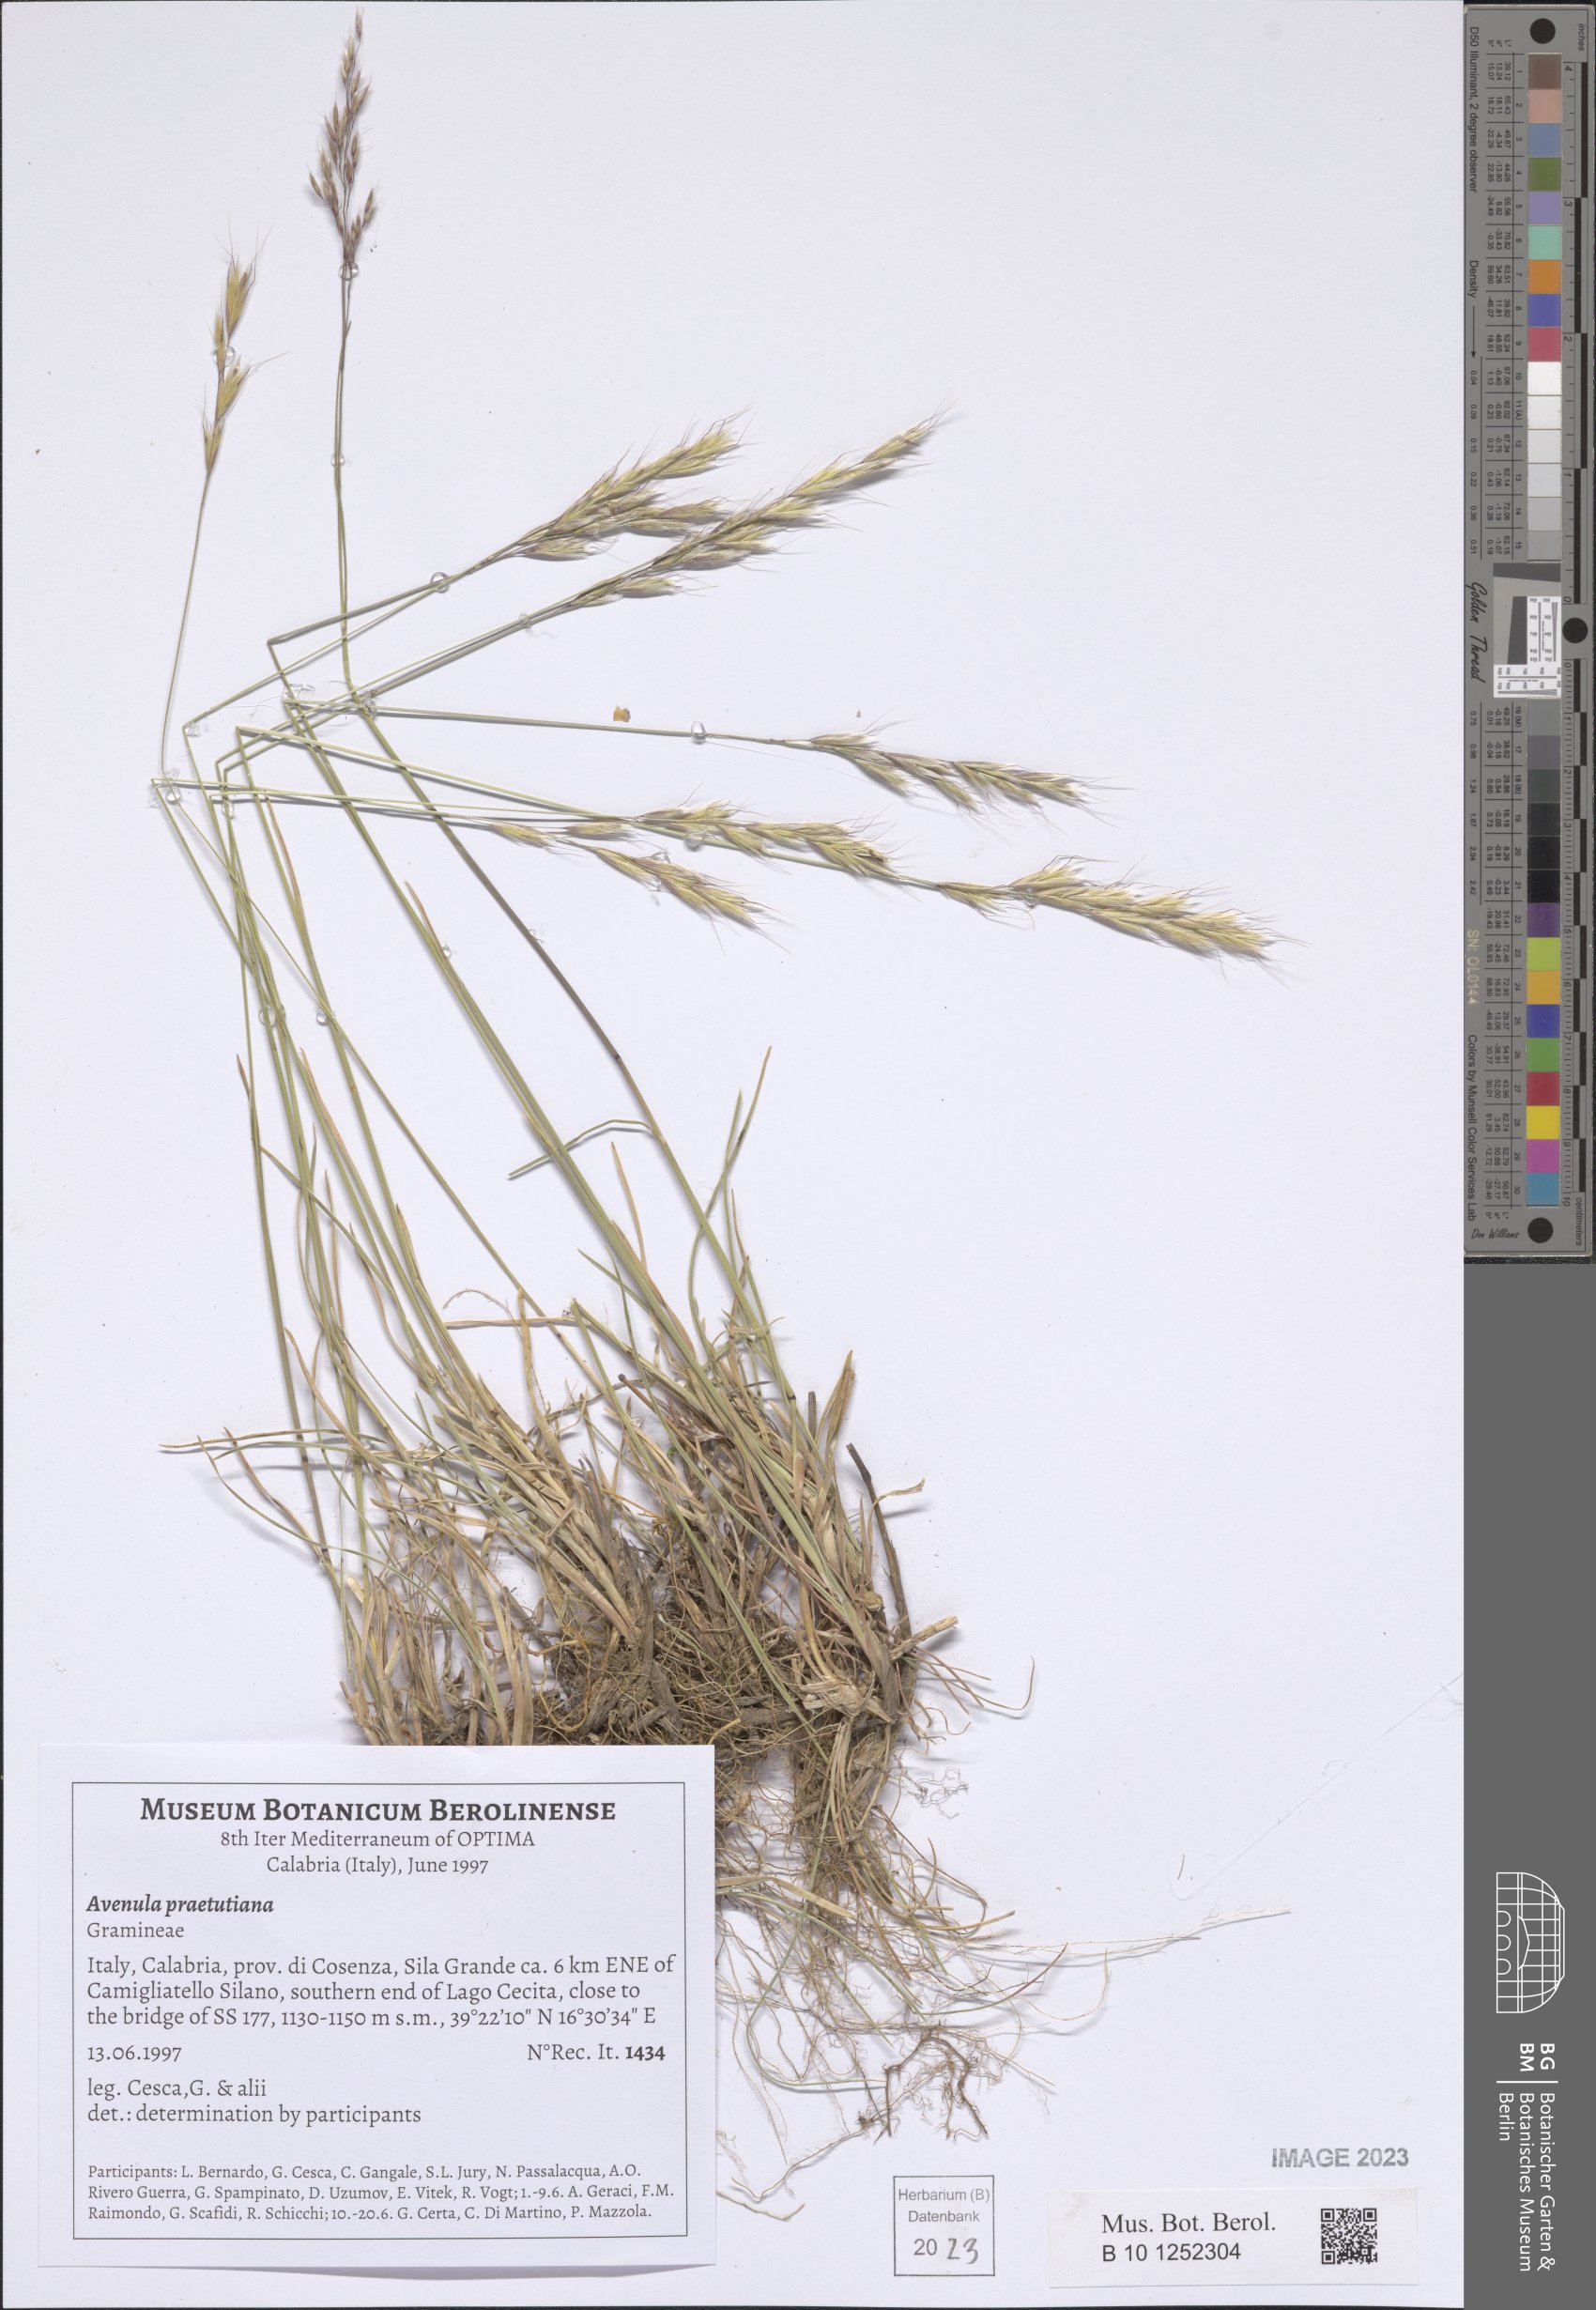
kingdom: Plantae
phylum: Tracheophyta
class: Liliopsida
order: Poales
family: Poaceae
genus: Helictochloa
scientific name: Helictochloa versicolor
